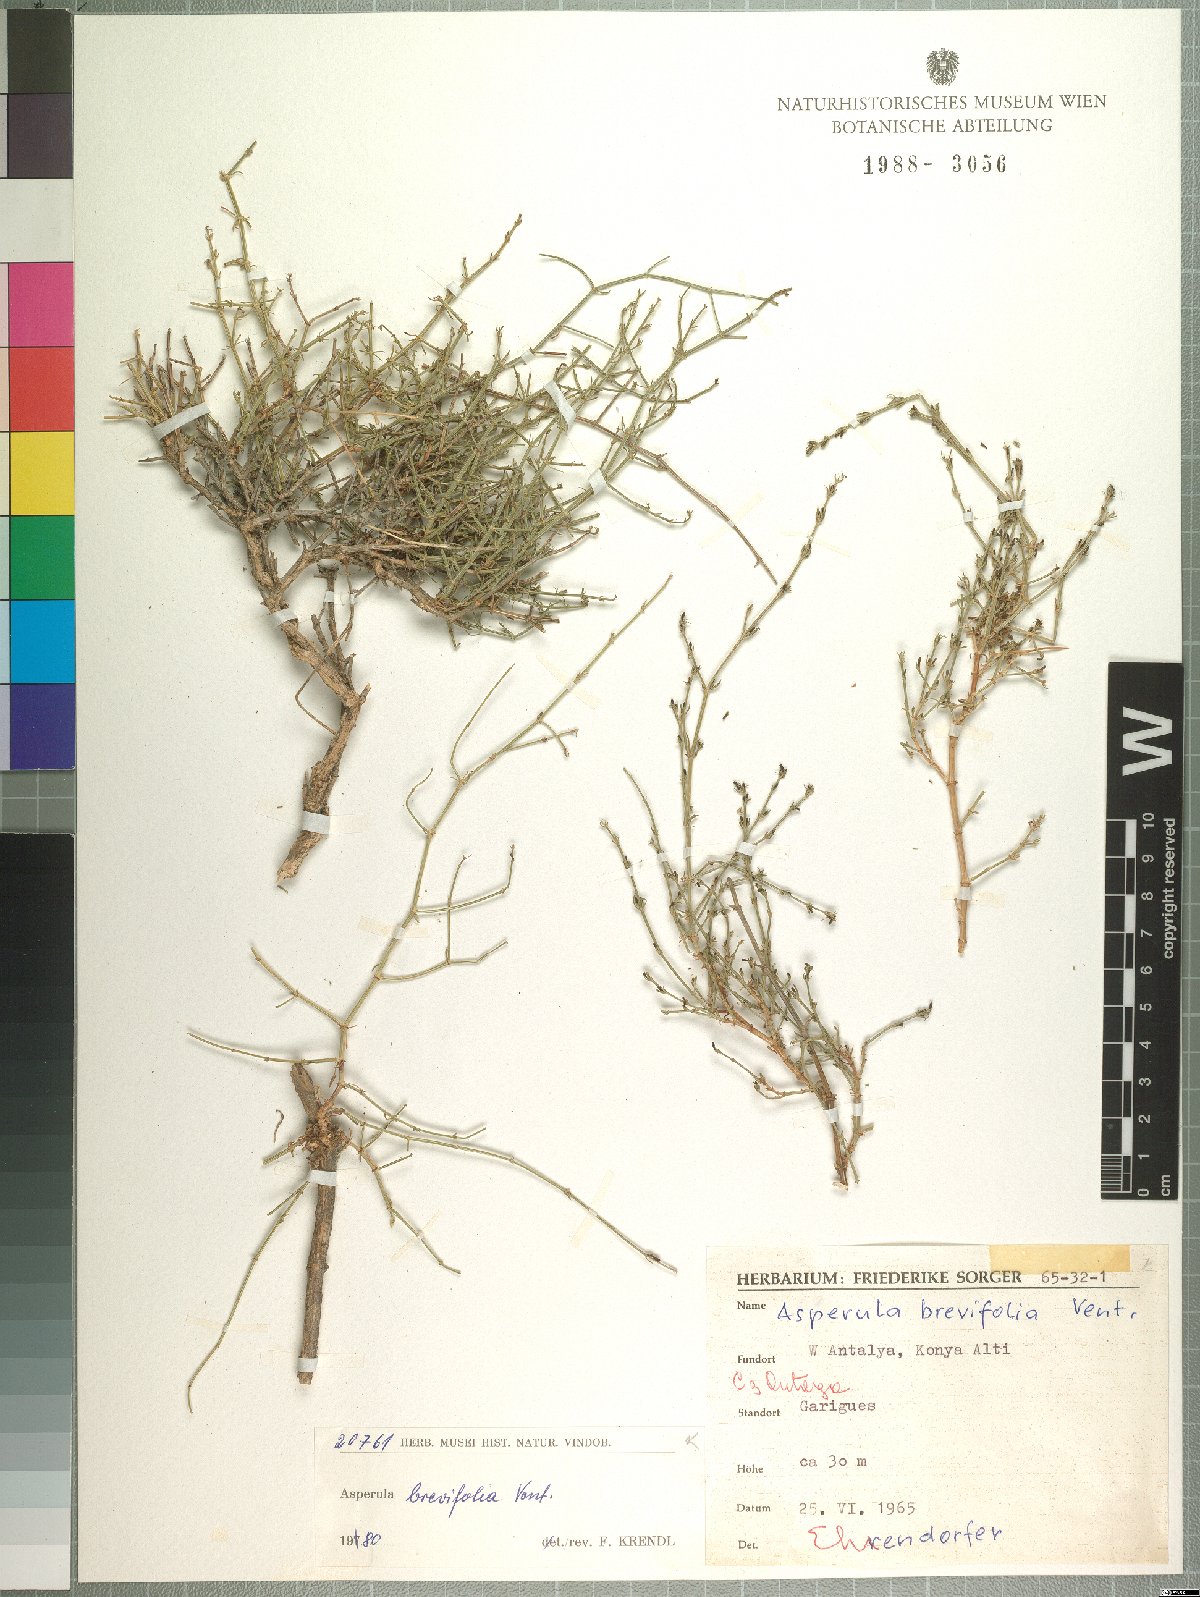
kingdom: Plantae
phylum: Tracheophyta
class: Magnoliopsida
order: Gentianales
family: Rubiaceae
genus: Thliphthisa
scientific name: Thliphthisa brevifolia
